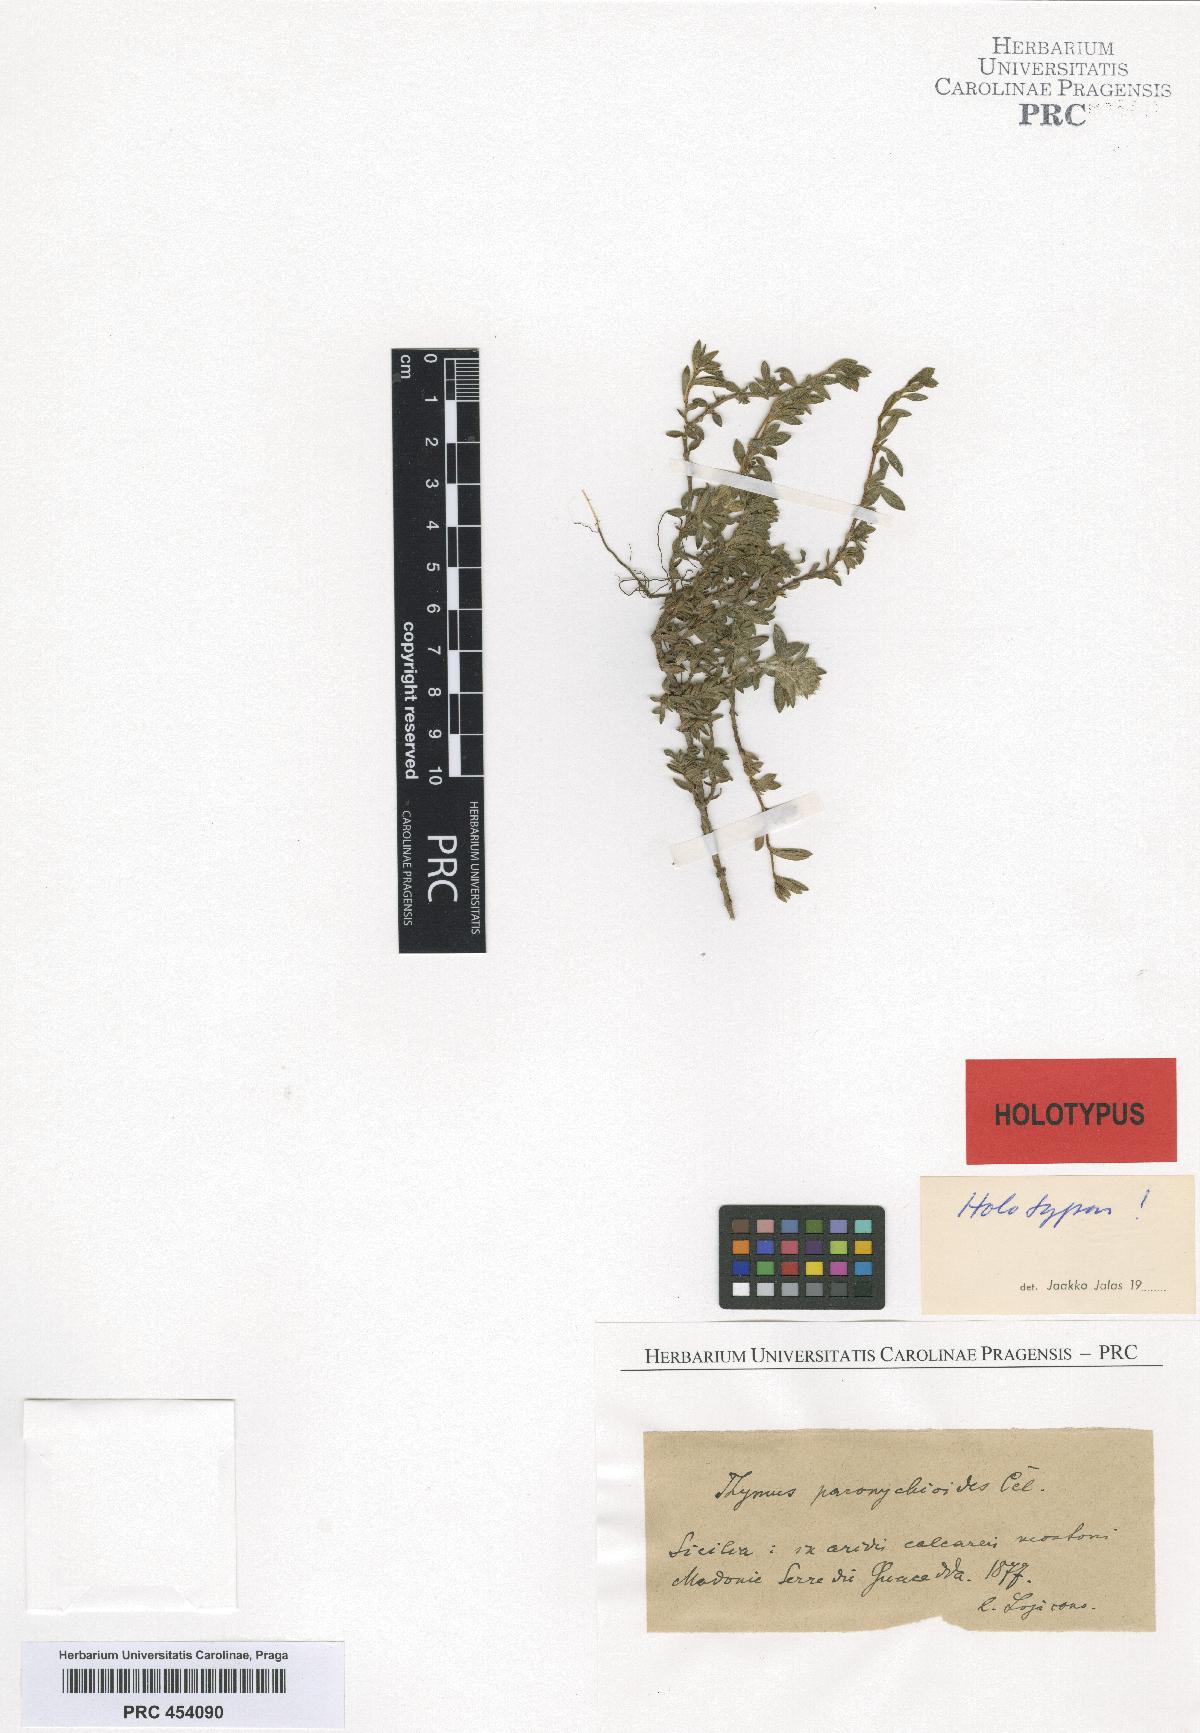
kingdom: Plantae
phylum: Tracheophyta
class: Magnoliopsida
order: Lamiales
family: Lamiaceae
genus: Thymus
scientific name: Thymus paronychioides
